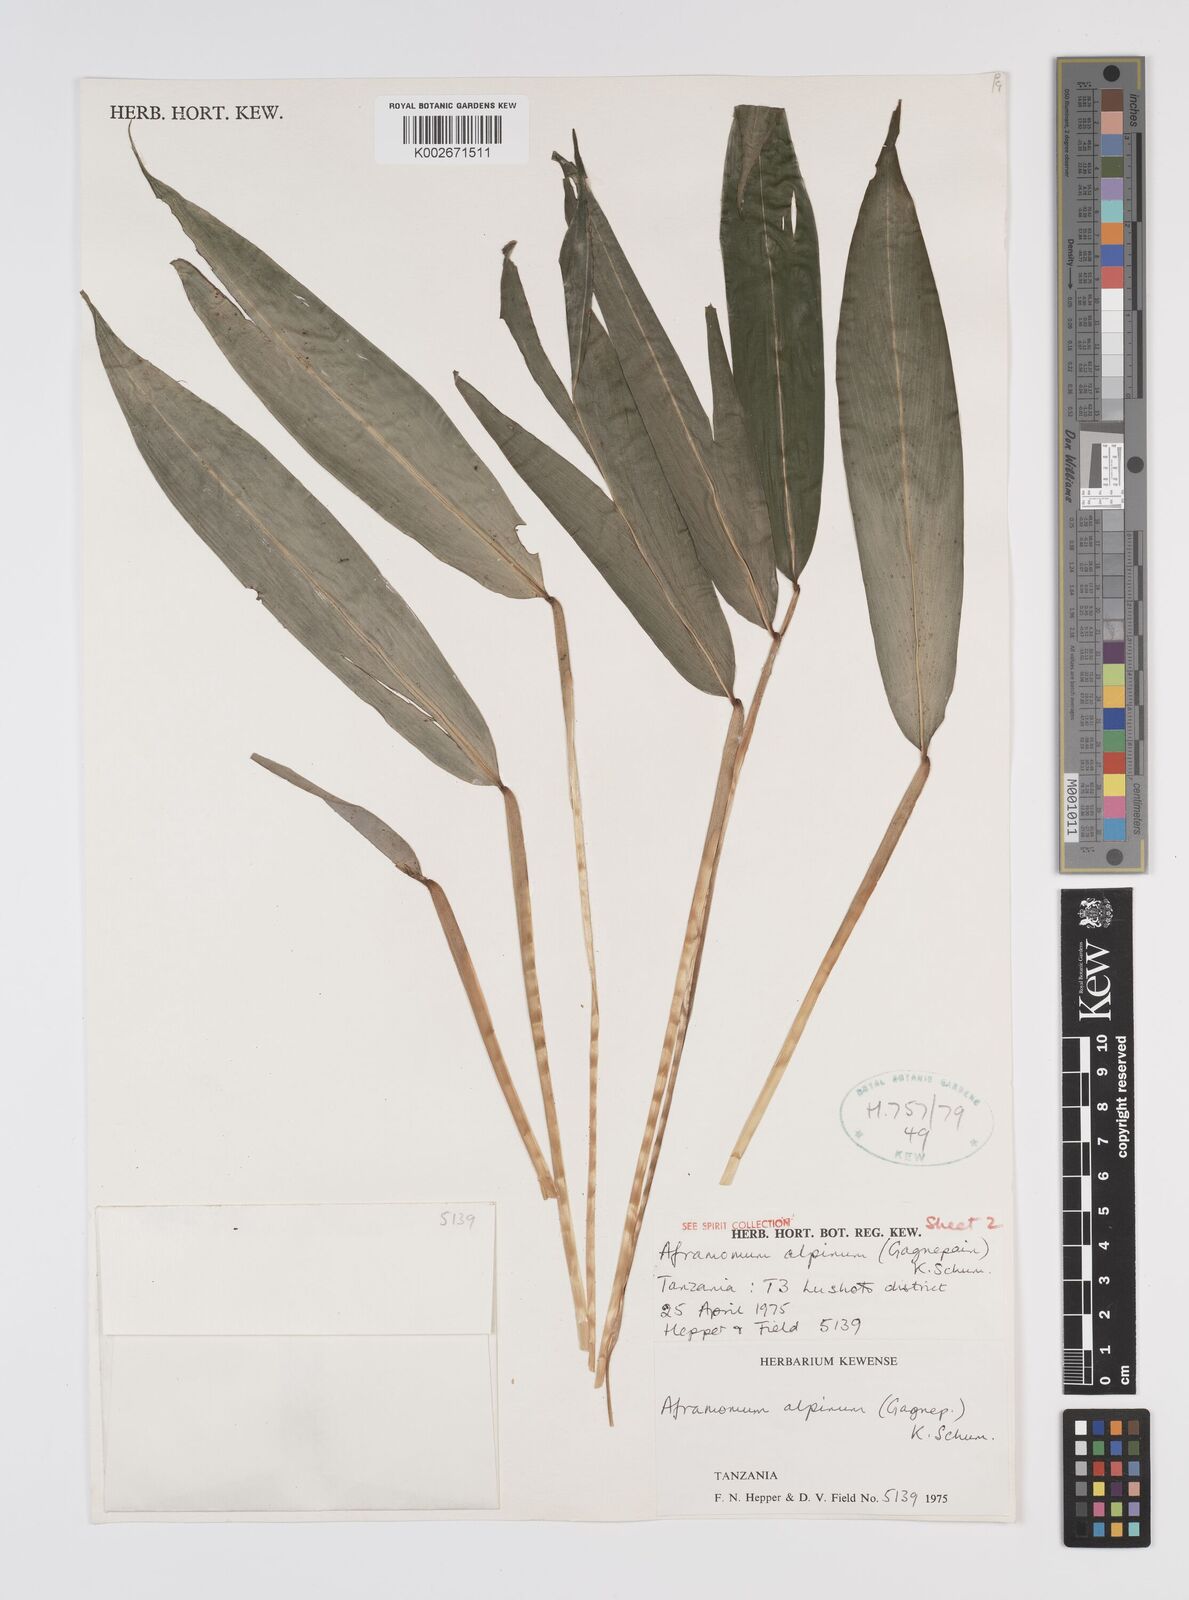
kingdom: Plantae
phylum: Tracheophyta
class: Liliopsida
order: Zingiberales
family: Zingiberaceae
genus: Aframomum
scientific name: Aframomum alpinum
